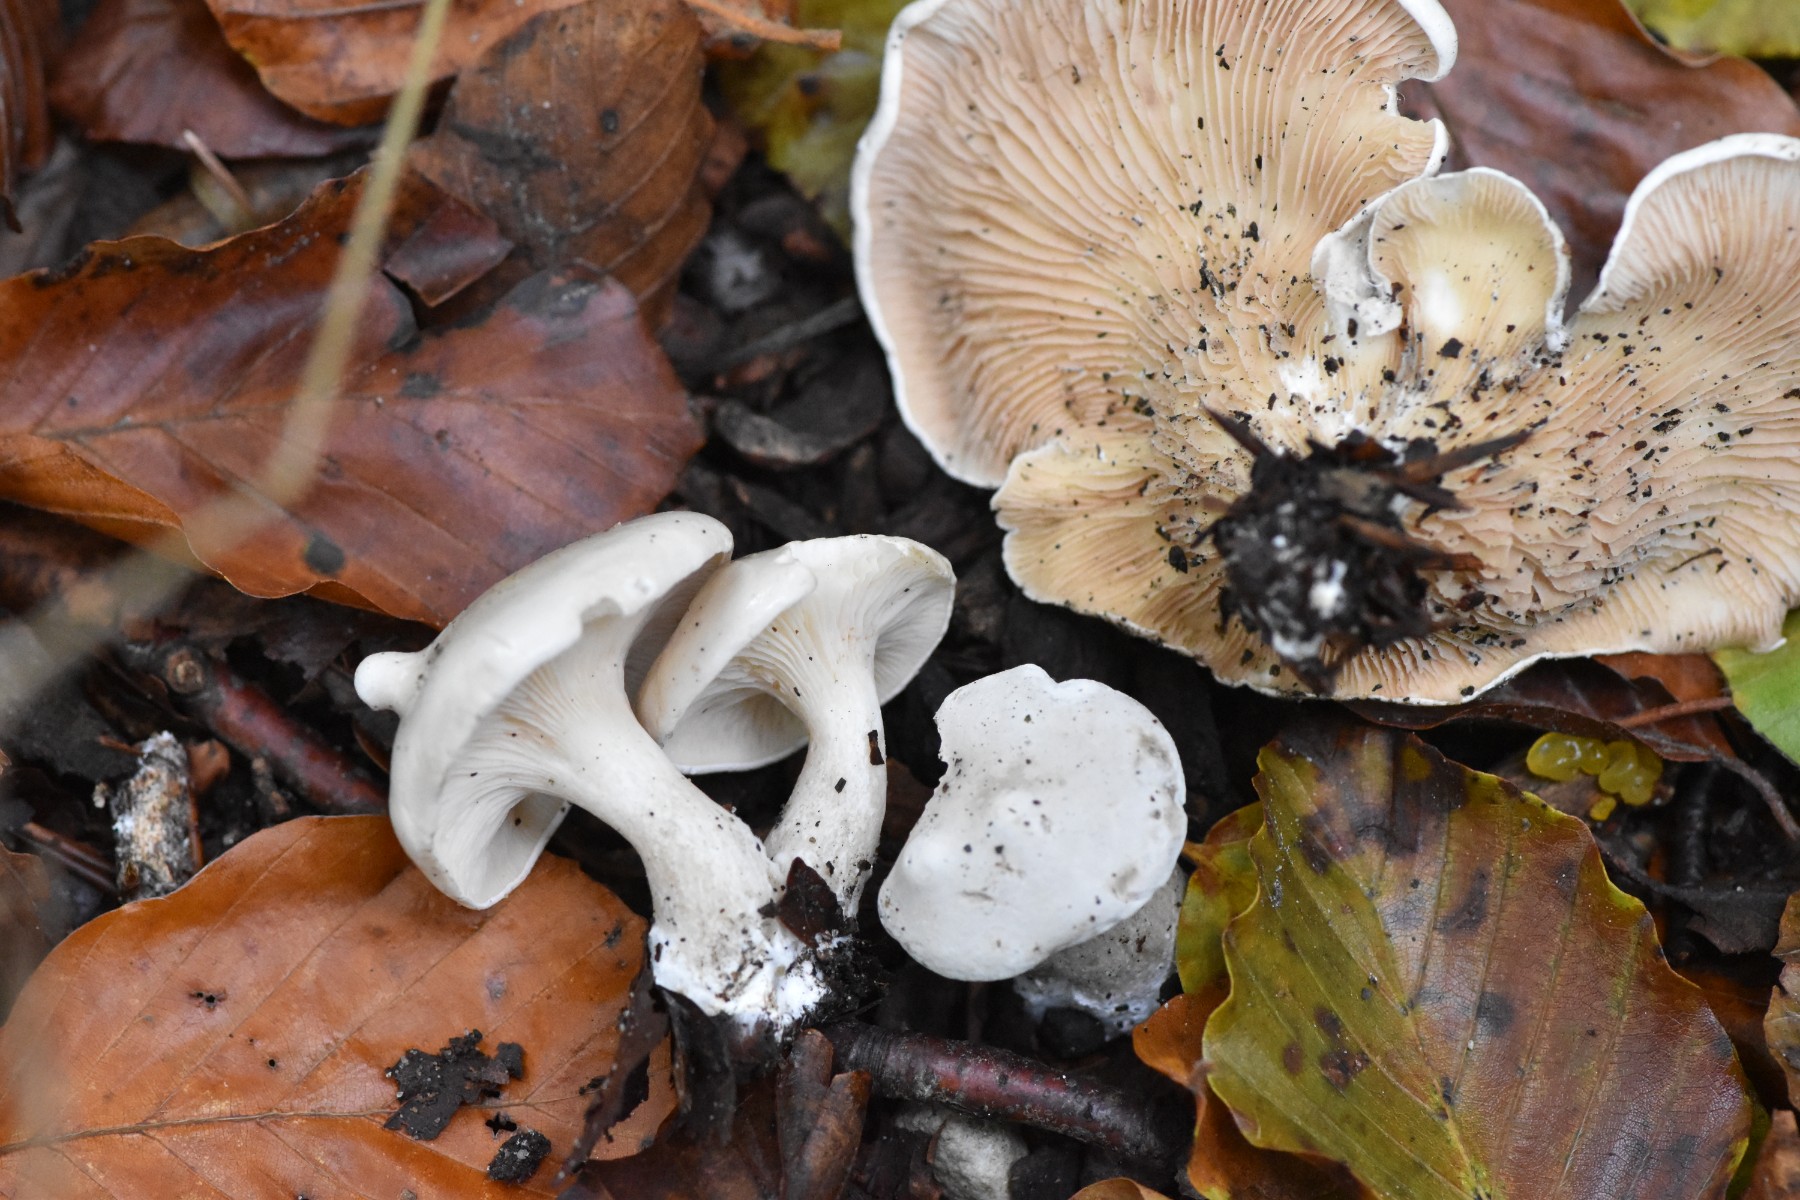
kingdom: Fungi
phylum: Basidiomycota
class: Agaricomycetes
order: Agaricales
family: Entolomataceae
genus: Clitopilus
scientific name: Clitopilus prunulus
